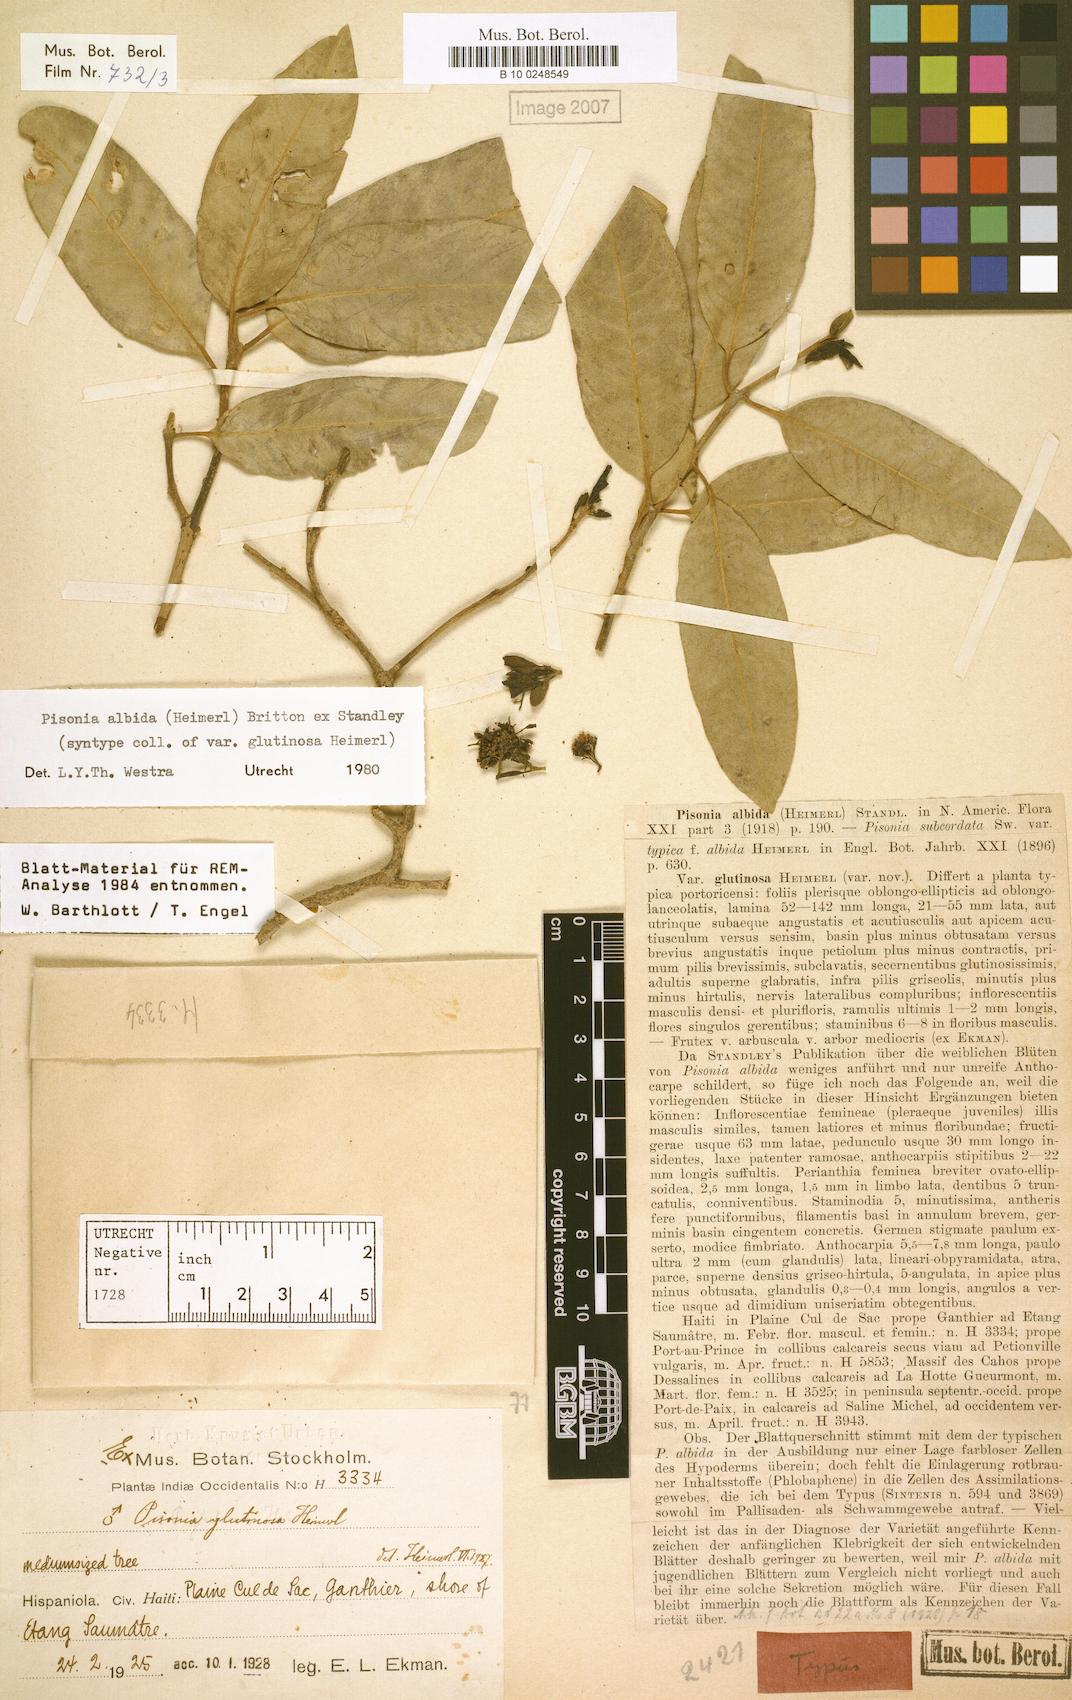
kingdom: Plantae
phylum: Tracheophyta
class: Magnoliopsida
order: Caryophyllales
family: Nyctaginaceae
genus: Pisonia
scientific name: Pisonia albida
